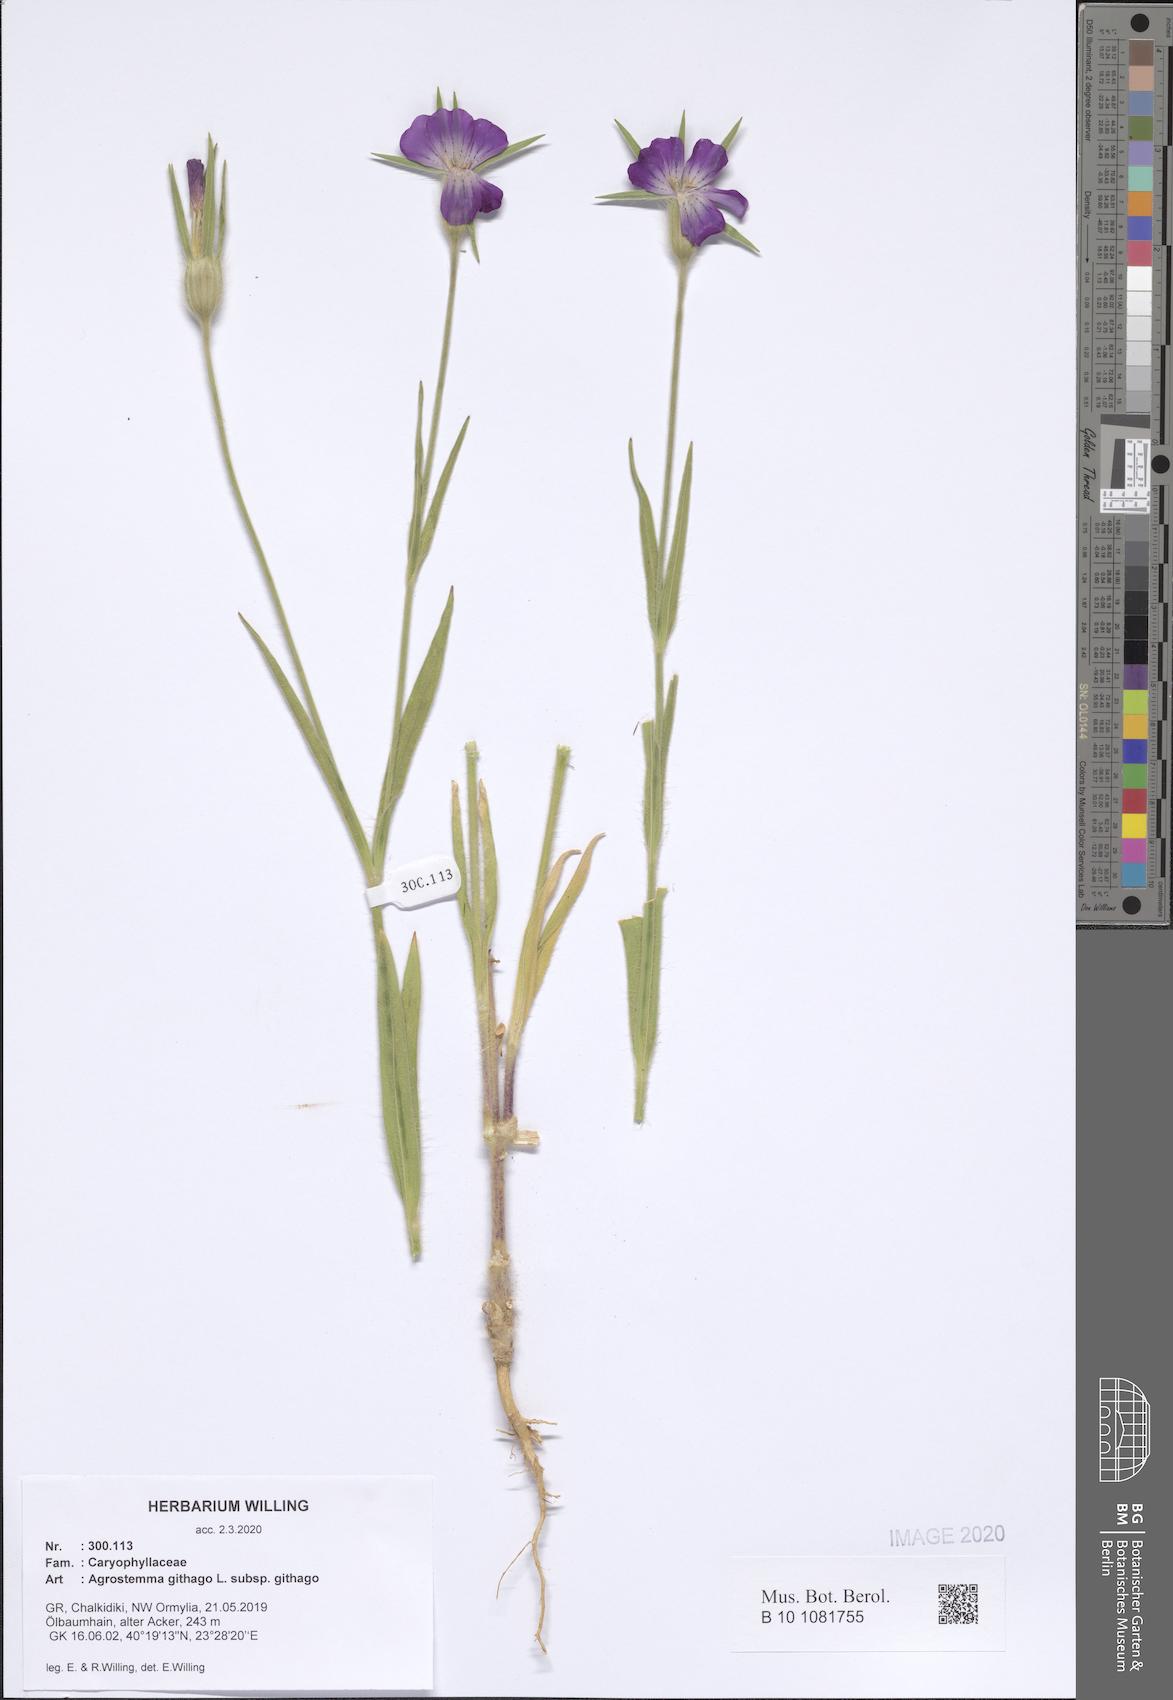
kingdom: Plantae
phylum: Tracheophyta
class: Magnoliopsida
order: Caryophyllales
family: Caryophyllaceae
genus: Agrostemma
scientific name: Agrostemma githago
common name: Common corncockle
